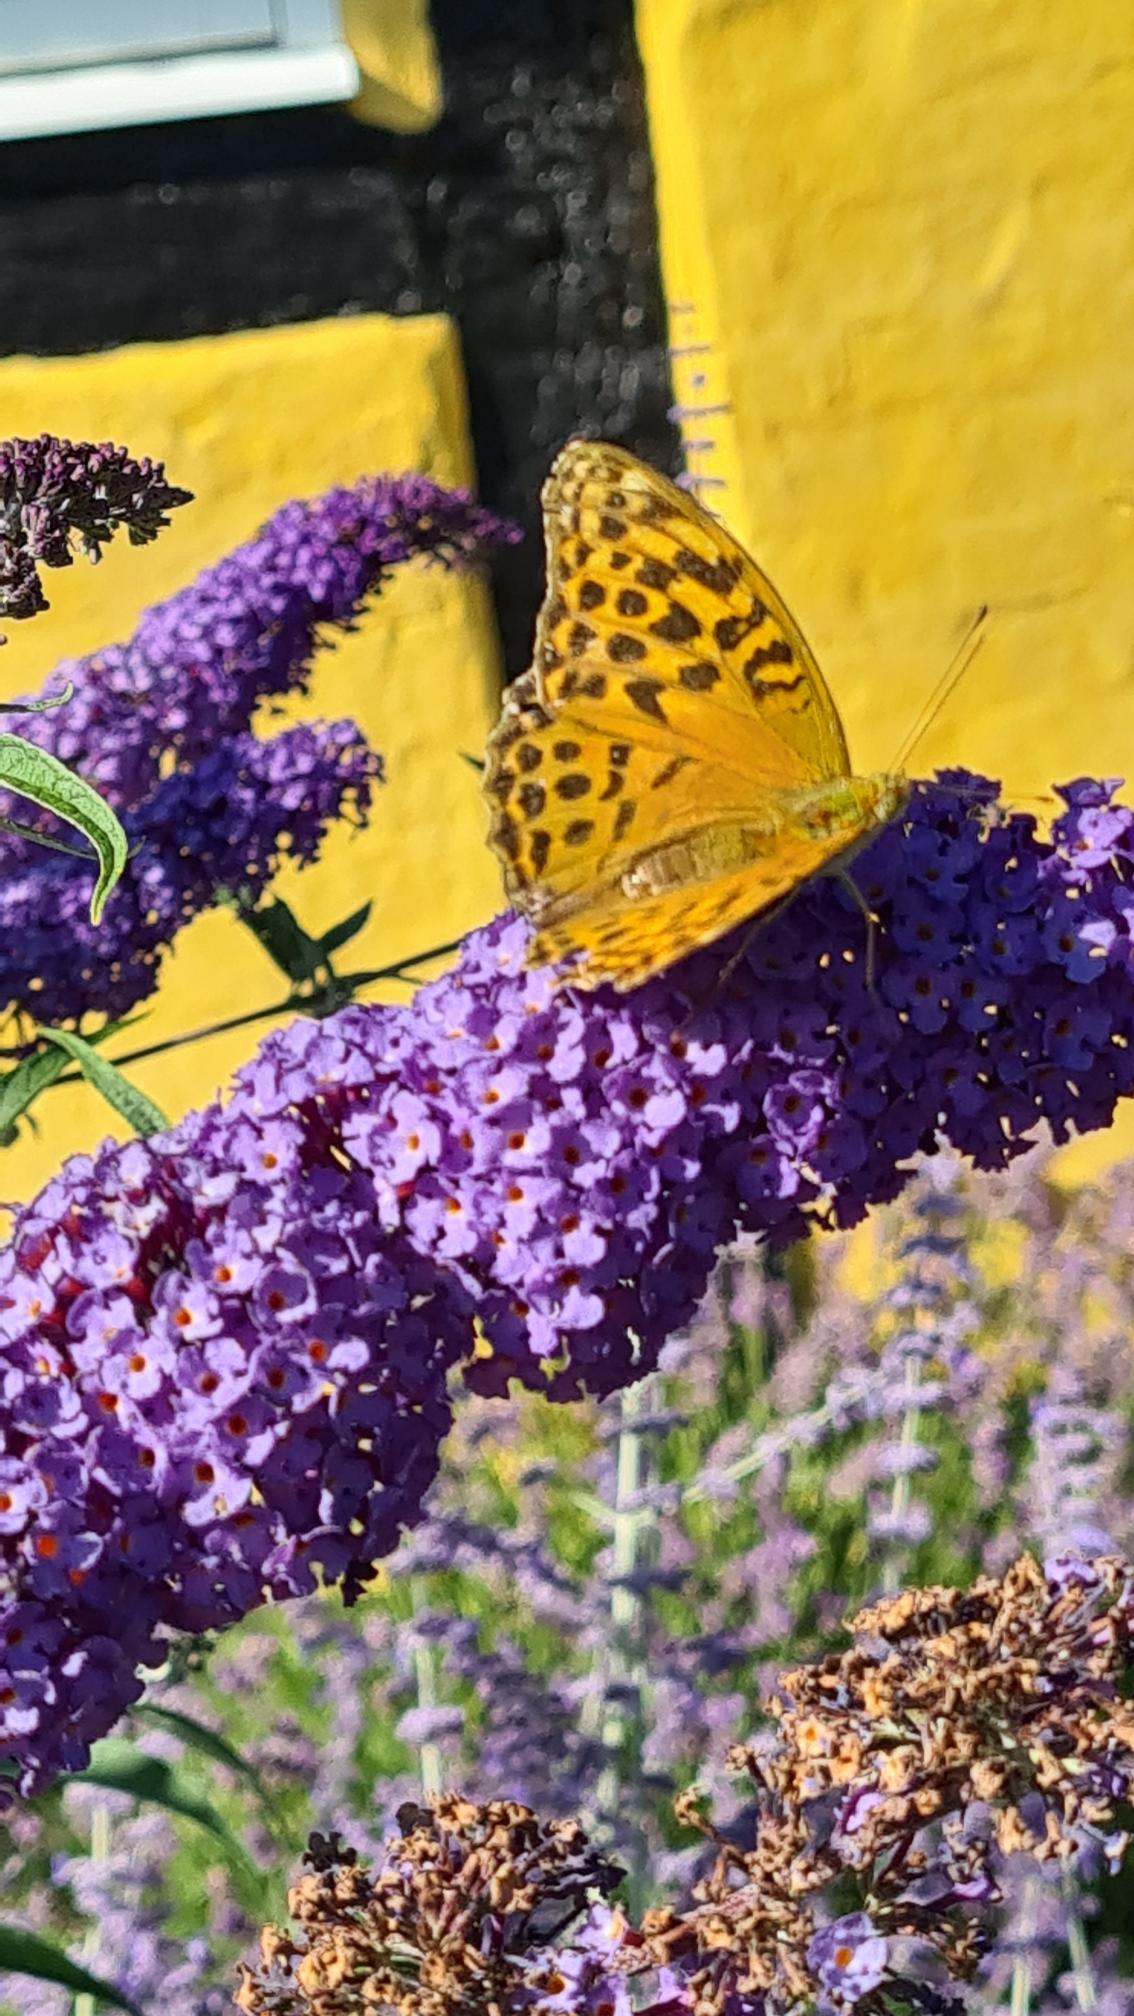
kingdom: Animalia
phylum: Arthropoda
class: Insecta
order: Lepidoptera
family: Nymphalidae
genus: Argynnis
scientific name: Argynnis paphia
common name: Kejserkåbe
